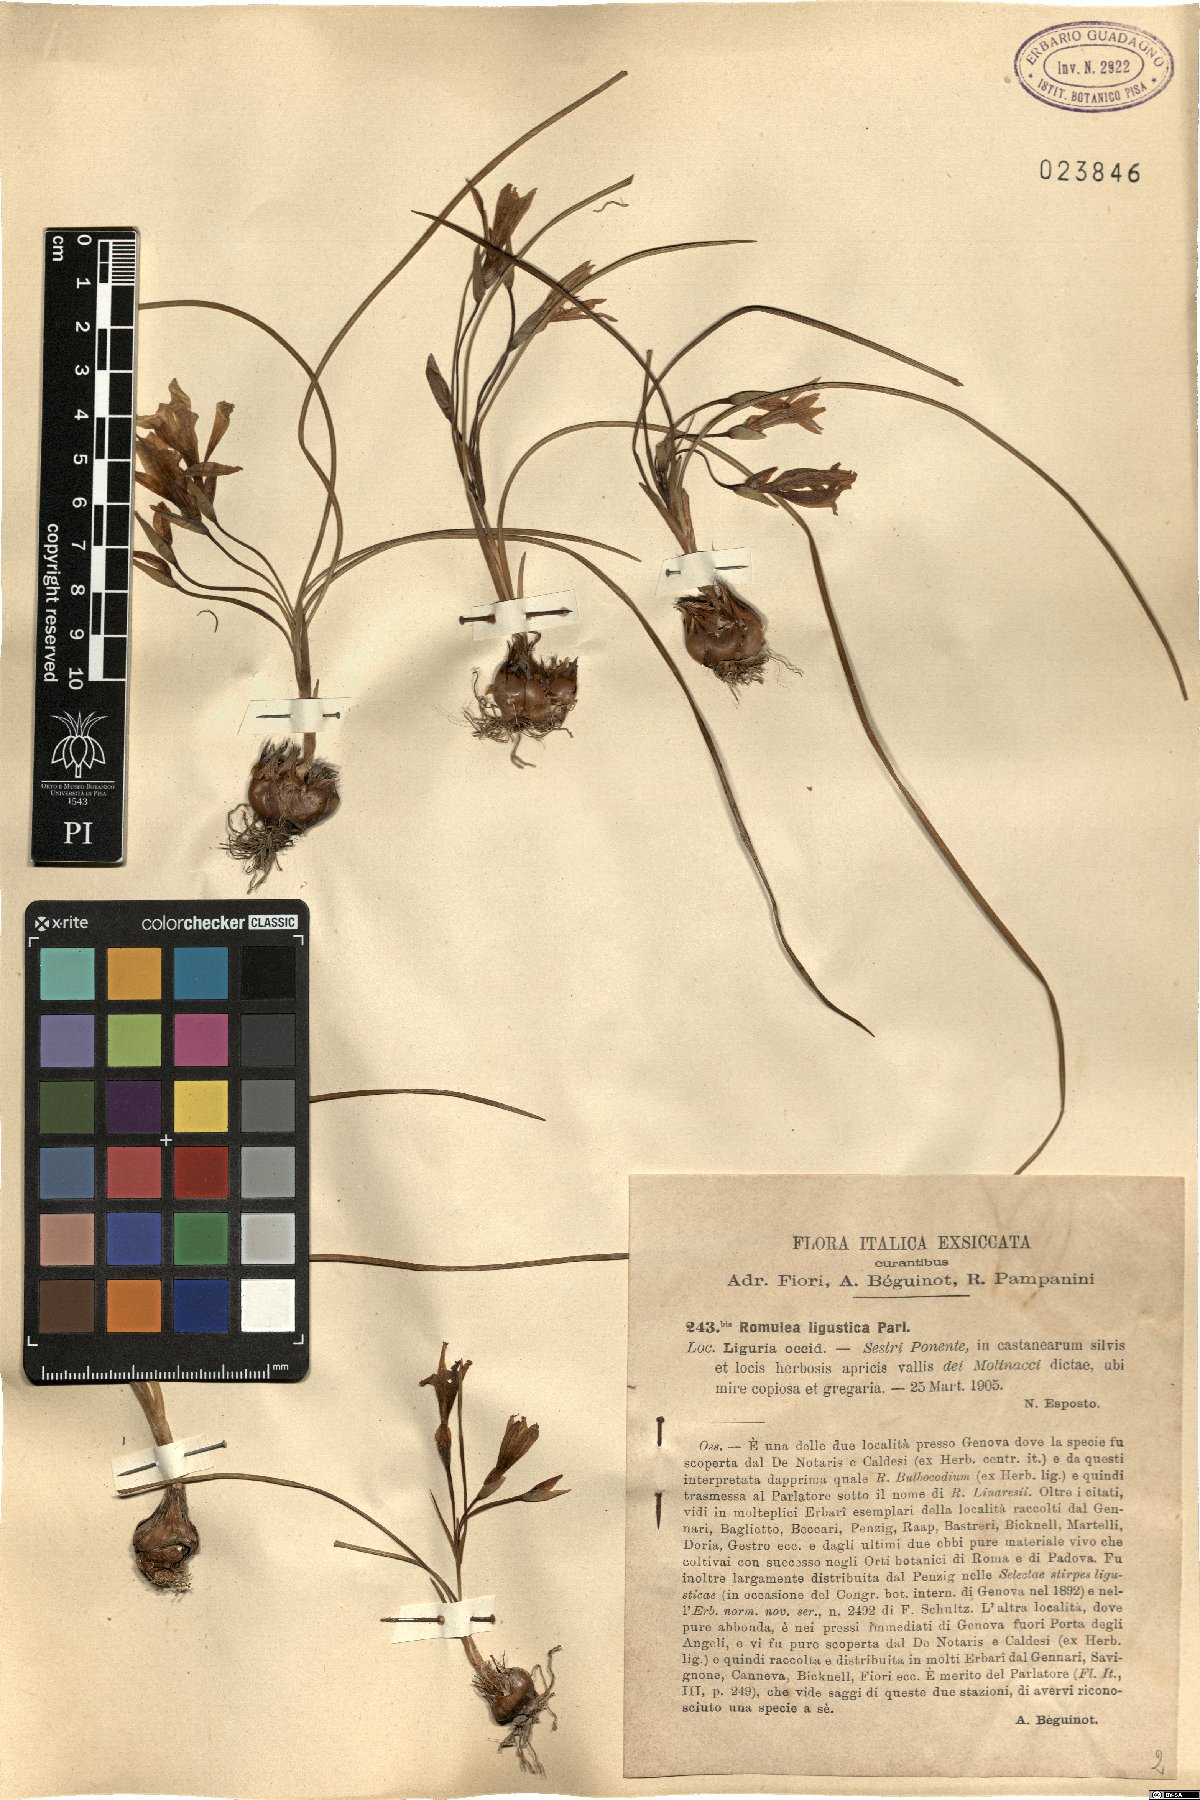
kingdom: Plantae
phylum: Tracheophyta
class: Liliopsida
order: Asparagales
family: Iridaceae
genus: Romulea
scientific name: Romulea ligustica
